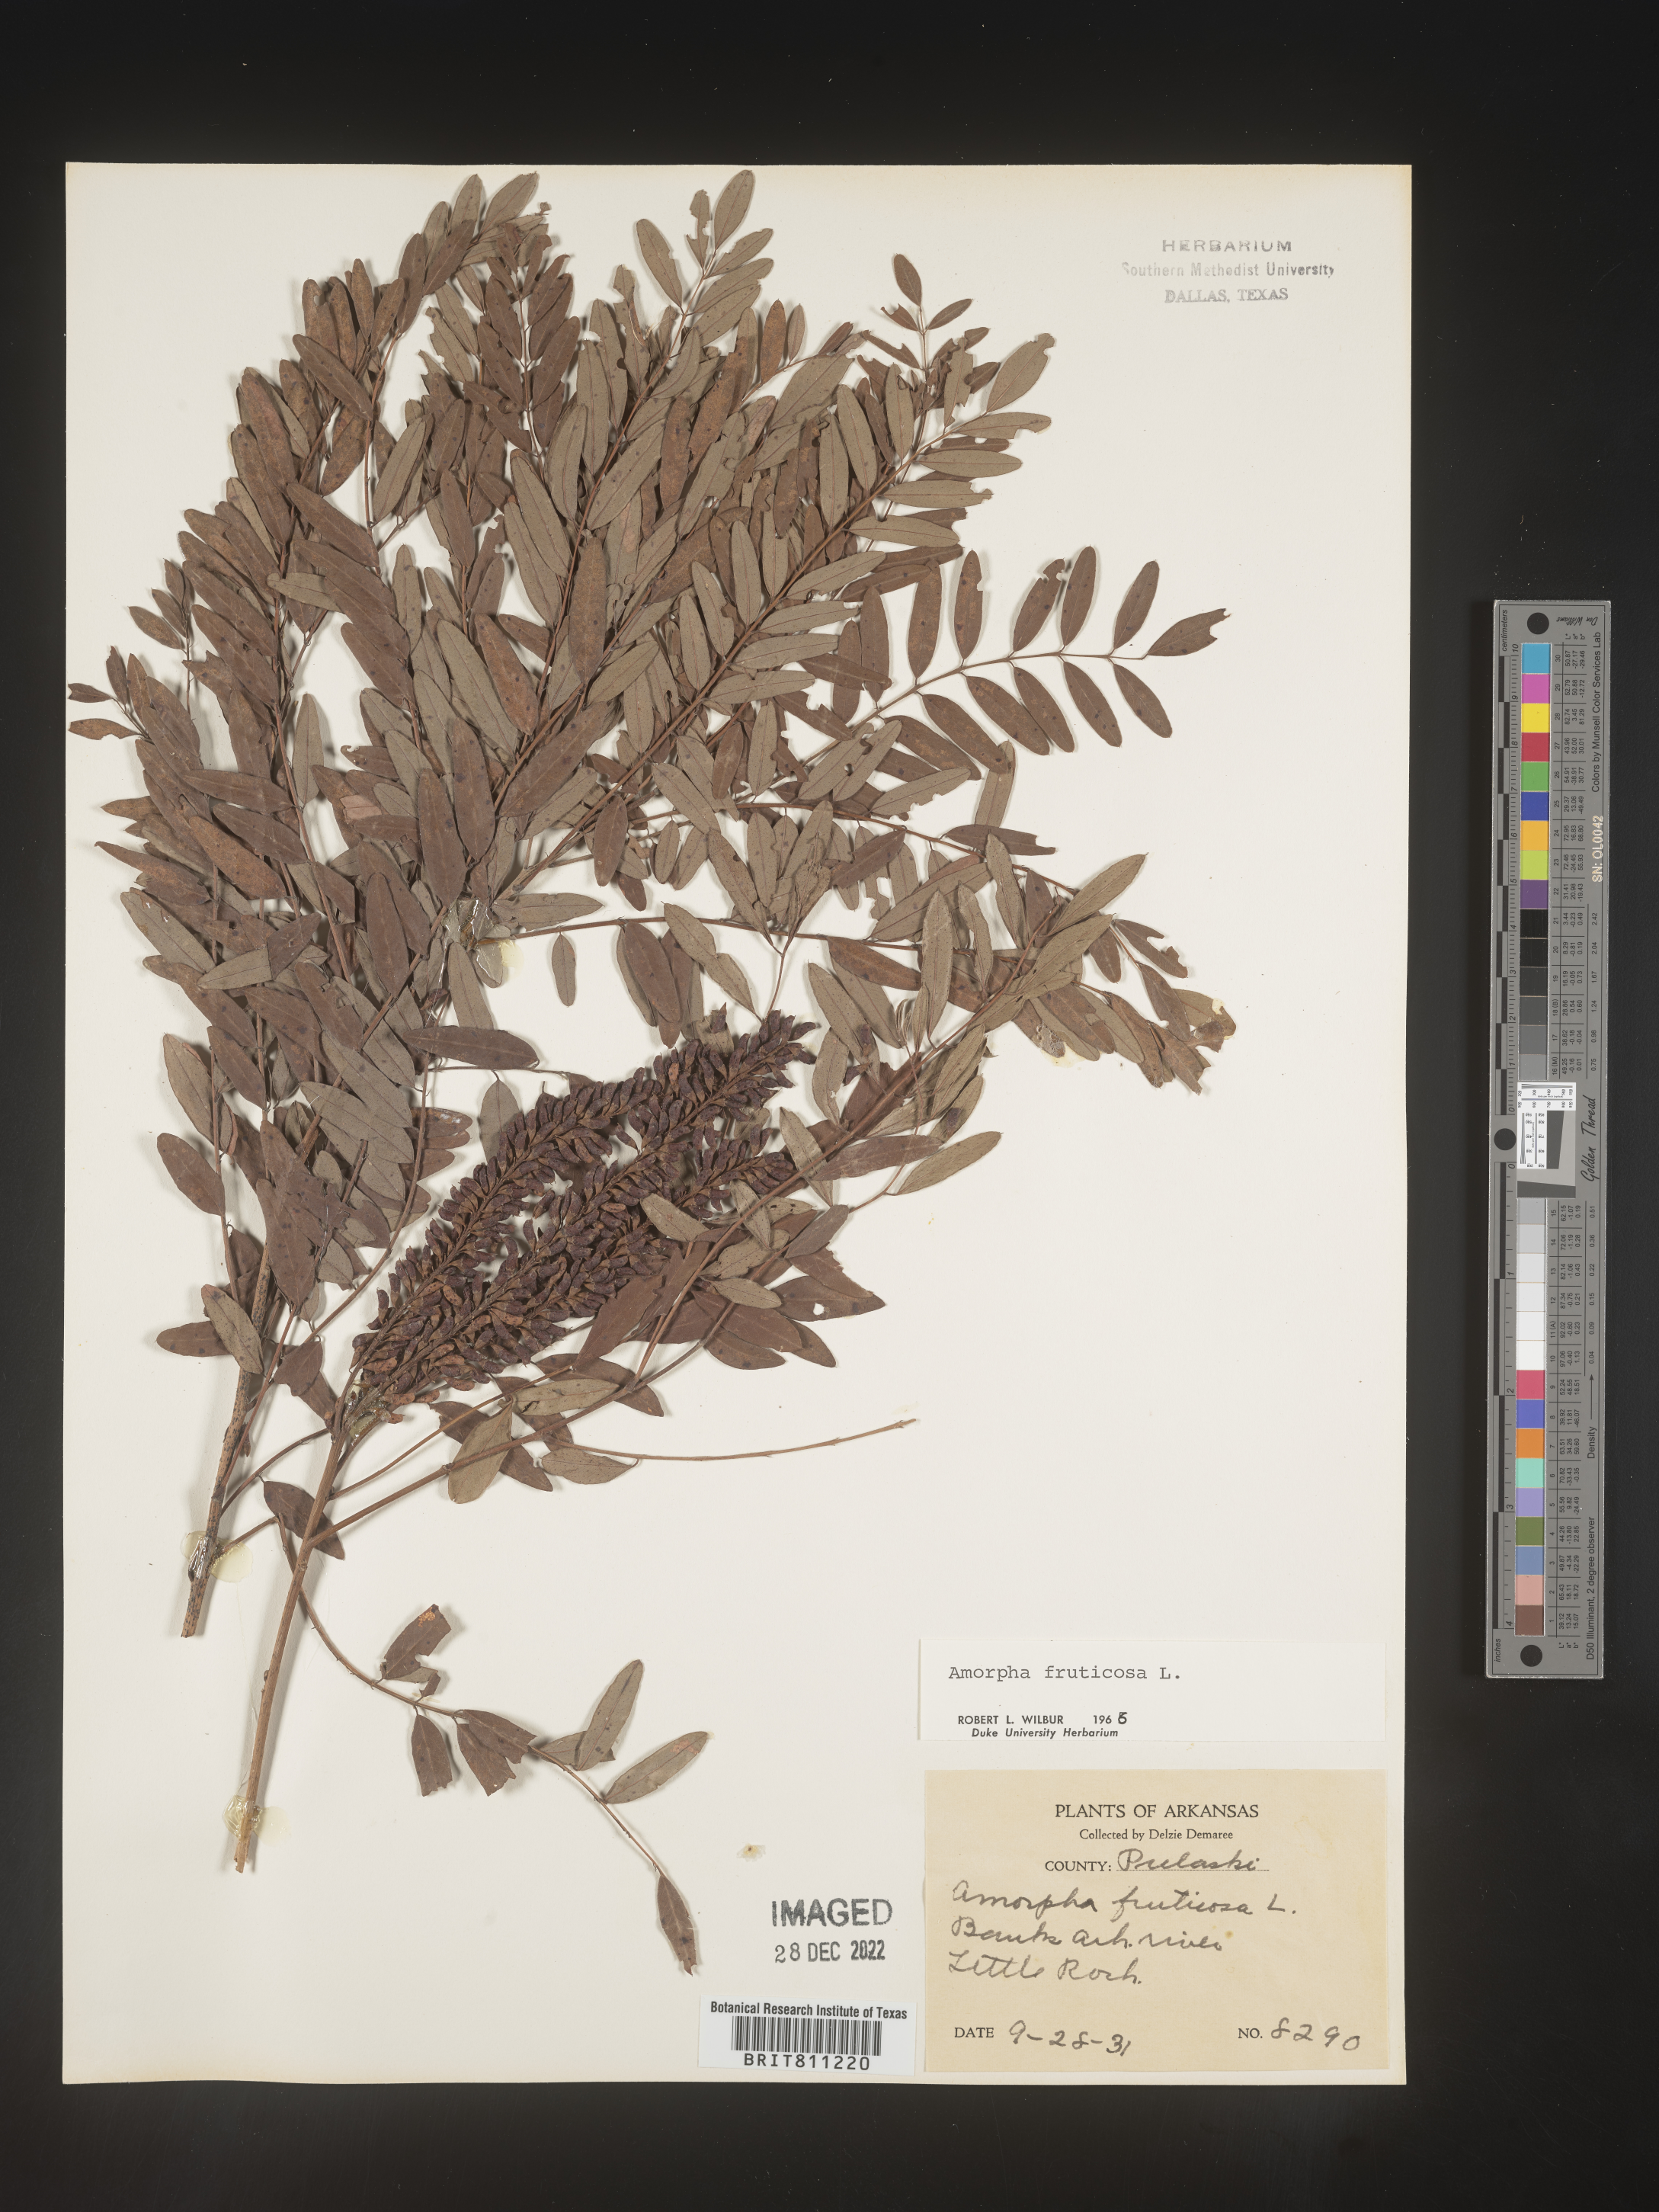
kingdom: Plantae
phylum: Tracheophyta
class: Magnoliopsida
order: Fabales
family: Fabaceae
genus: Amorpha
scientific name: Amorpha fruticosa
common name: False indigo
